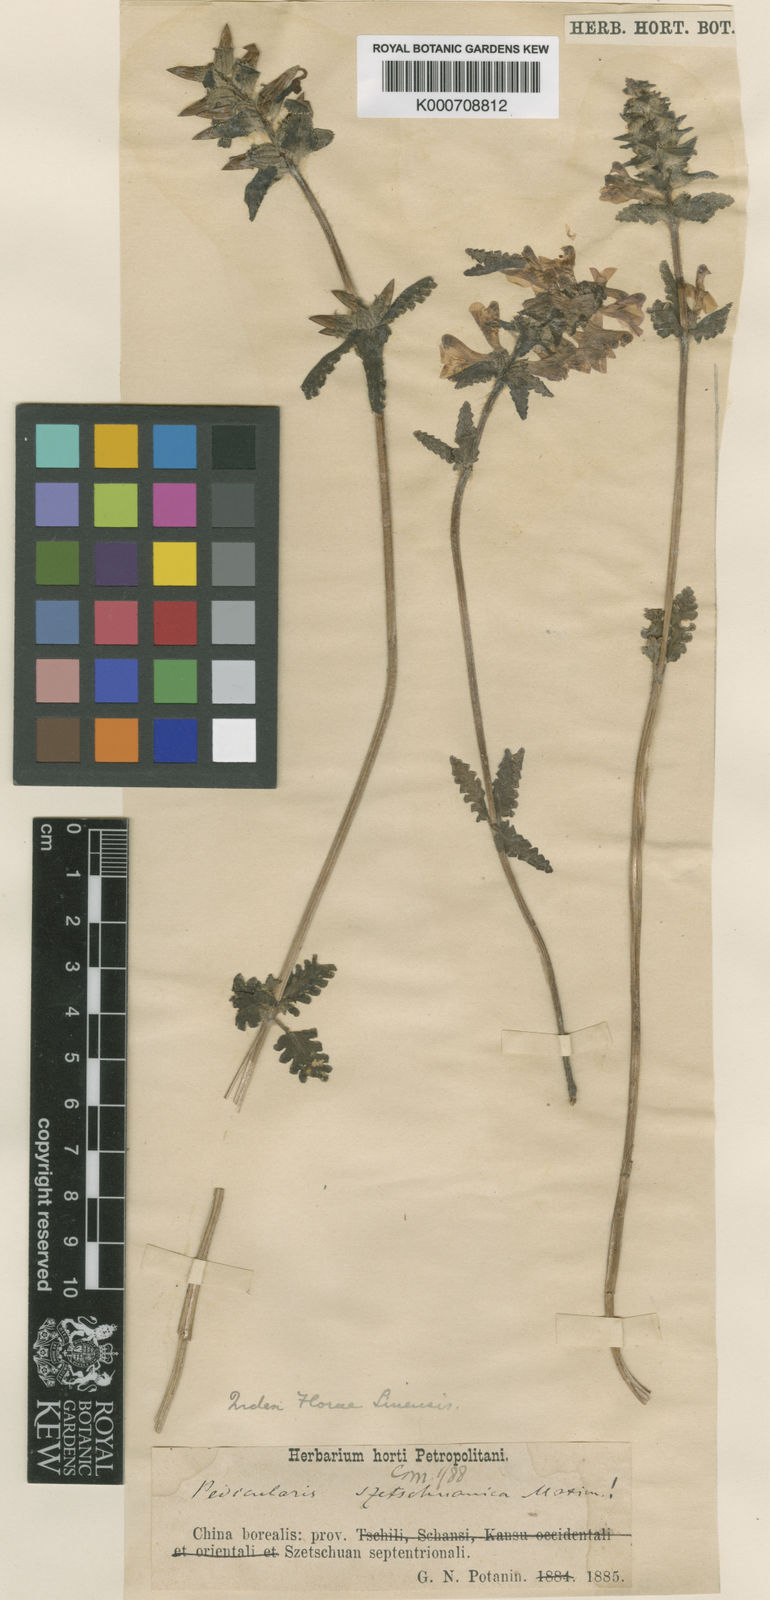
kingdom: Plantae
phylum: Tracheophyta
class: Magnoliopsida
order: Lamiales
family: Orobanchaceae
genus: Pedicularis
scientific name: Pedicularis szetschuanica
